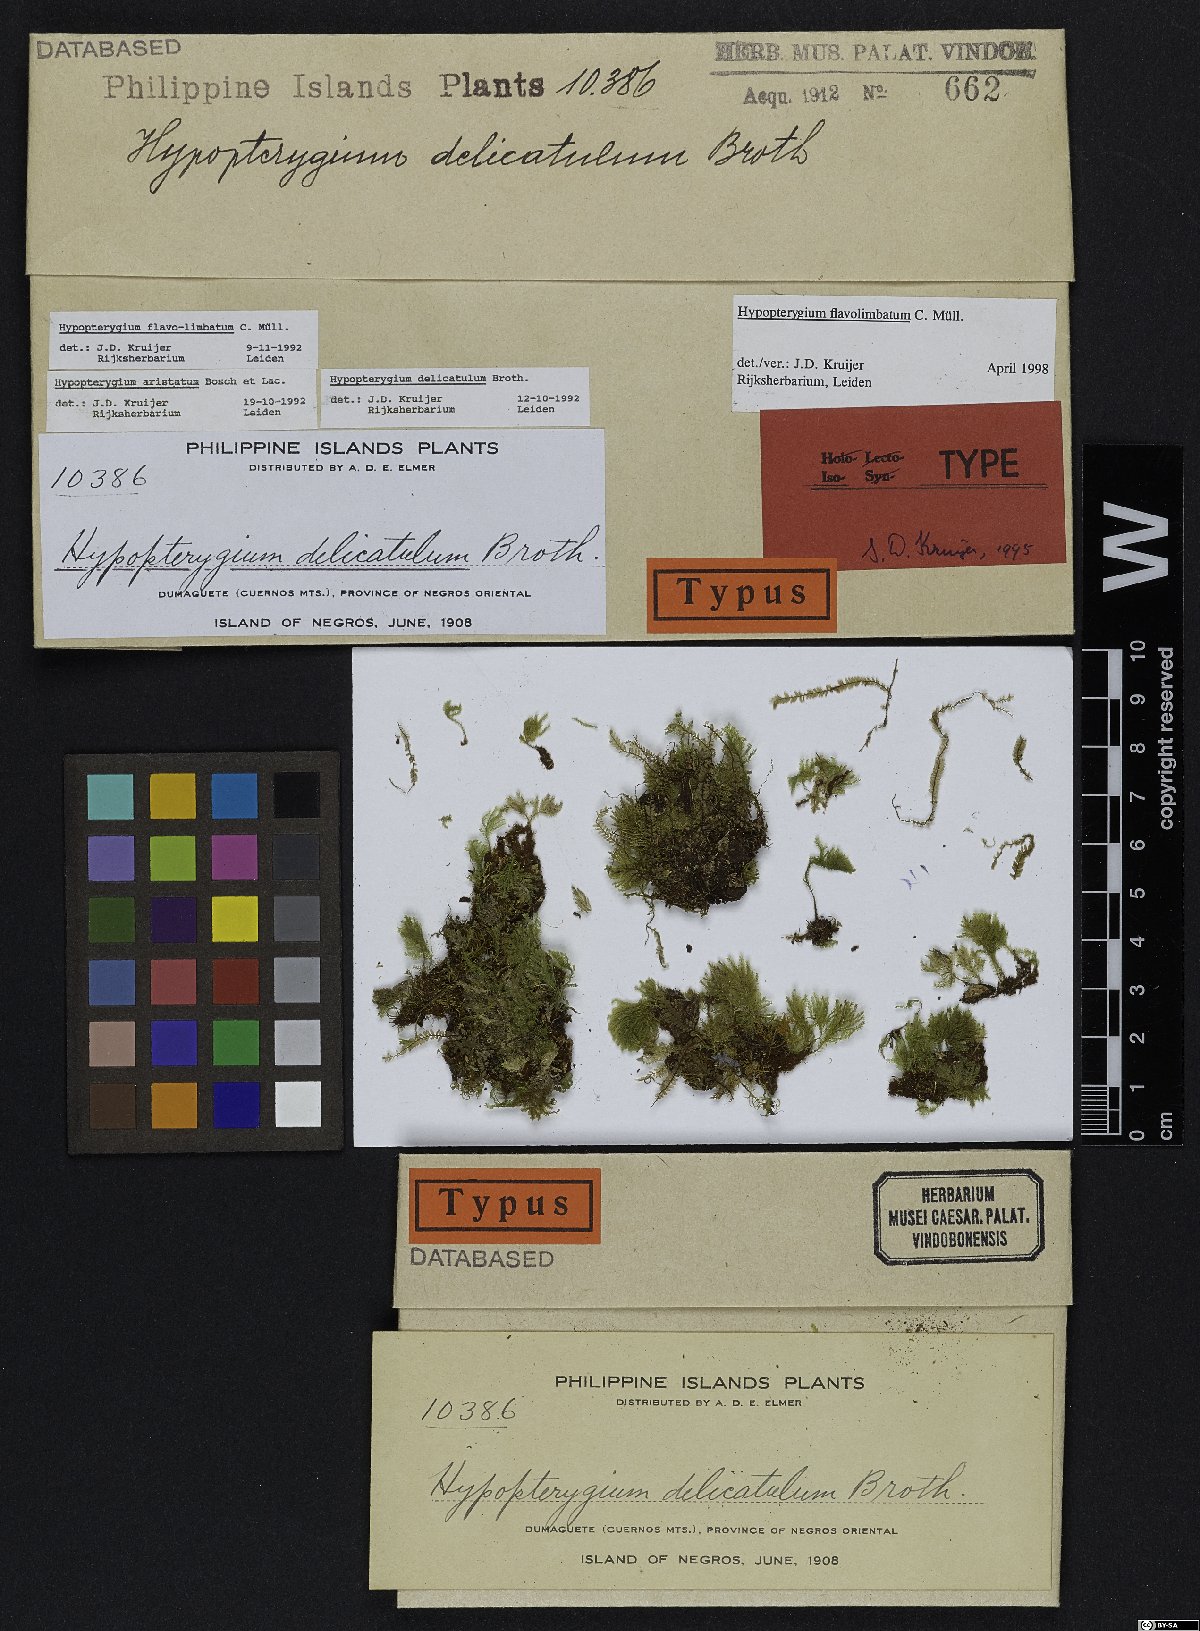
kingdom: Plantae
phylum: Bryophyta
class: Bryopsida
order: Hypopterygiales
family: Hypopterygiaceae
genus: Hypopterygium
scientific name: Hypopterygium flavolimbatum
